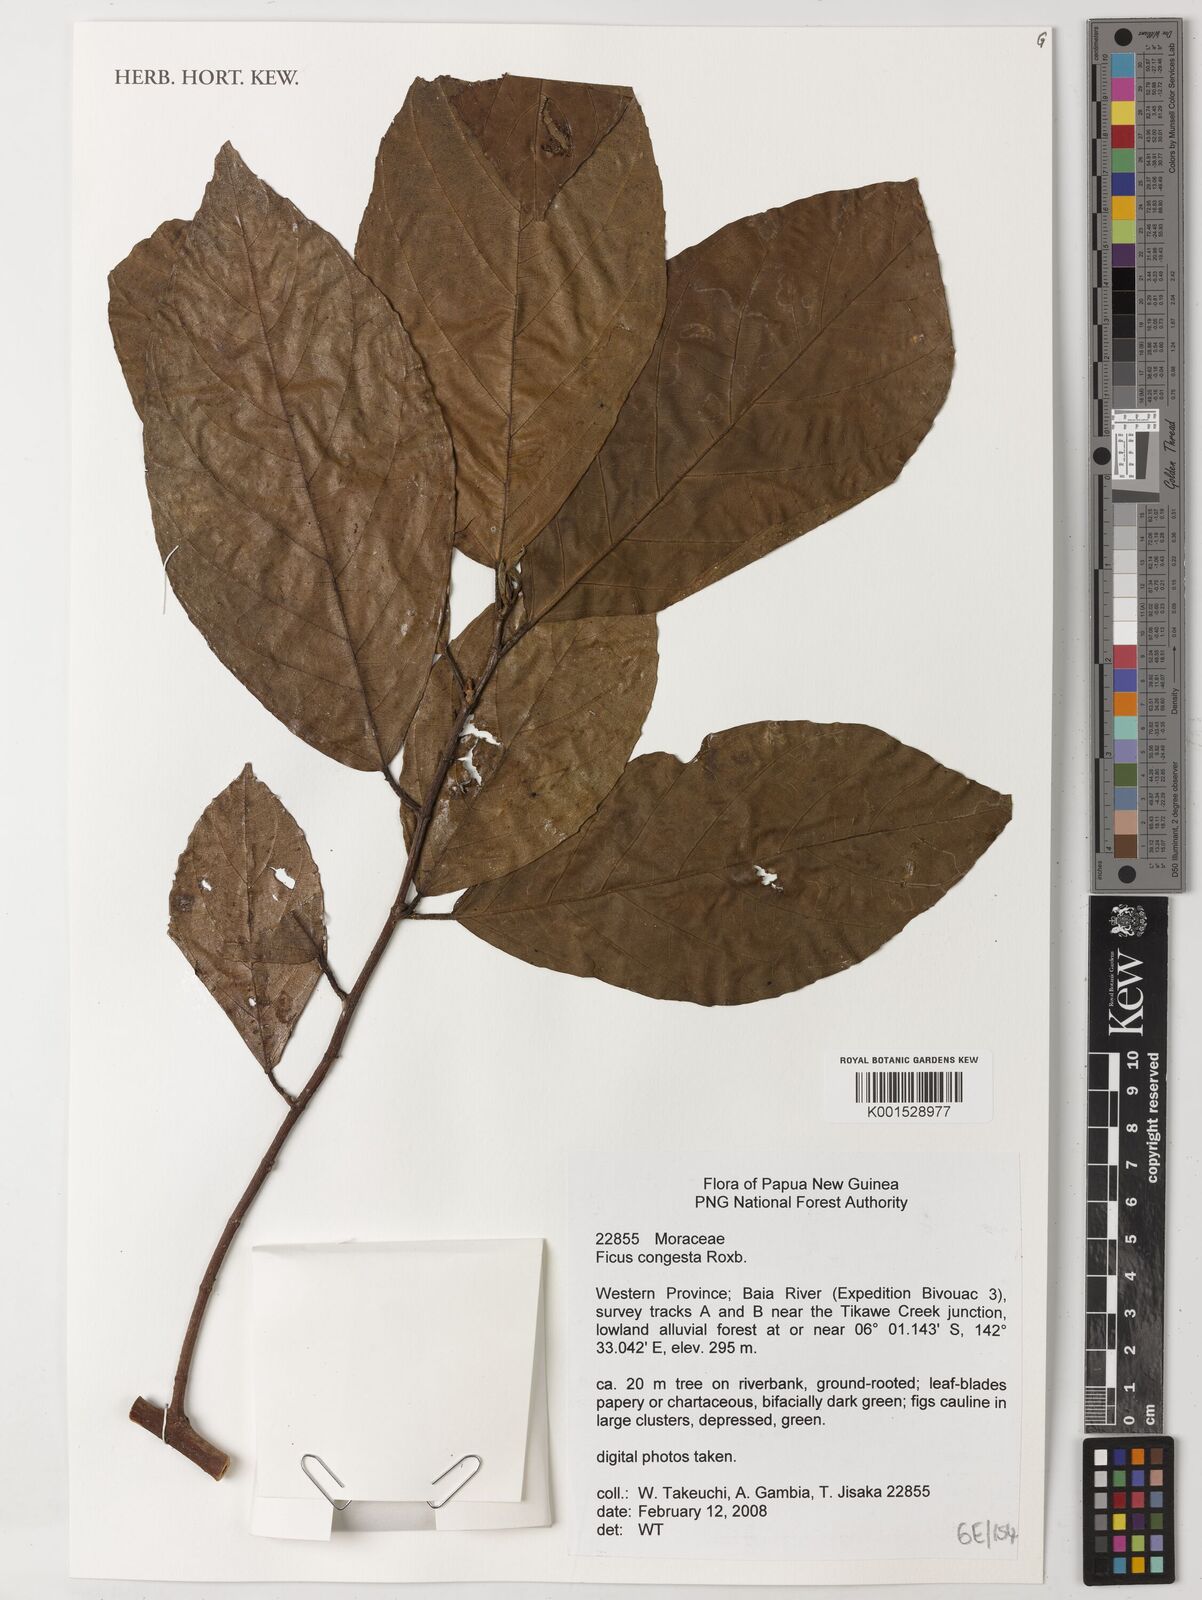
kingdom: Plantae
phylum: Tracheophyta
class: Magnoliopsida
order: Rosales
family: Moraceae
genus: Ficus
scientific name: Ficus congesta
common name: Cluster fig
